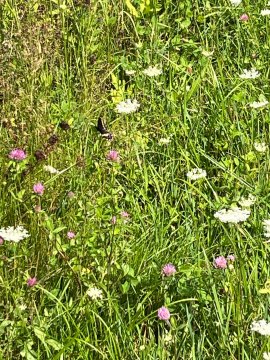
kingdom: Animalia
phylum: Arthropoda
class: Insecta
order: Lepidoptera
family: Papilionidae
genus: Papilio
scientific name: Papilio polyxenes
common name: Black Swallowtail
